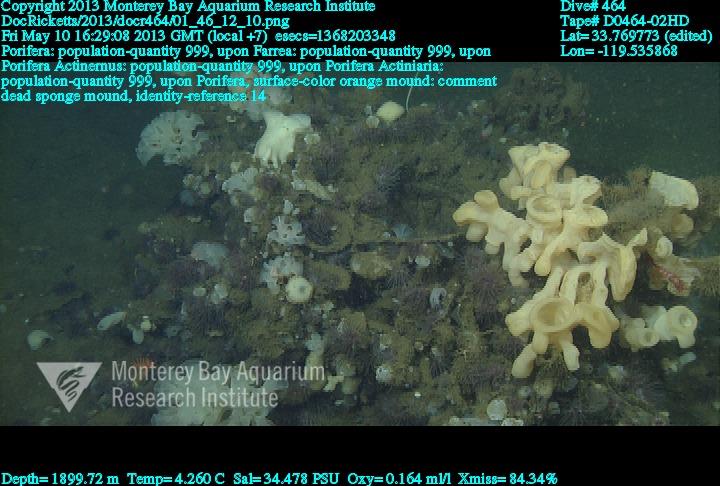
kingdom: Animalia
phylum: Porifera
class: Hexactinellida
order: Sceptrulophora
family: Farreidae
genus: Farrea
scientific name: Farrea
